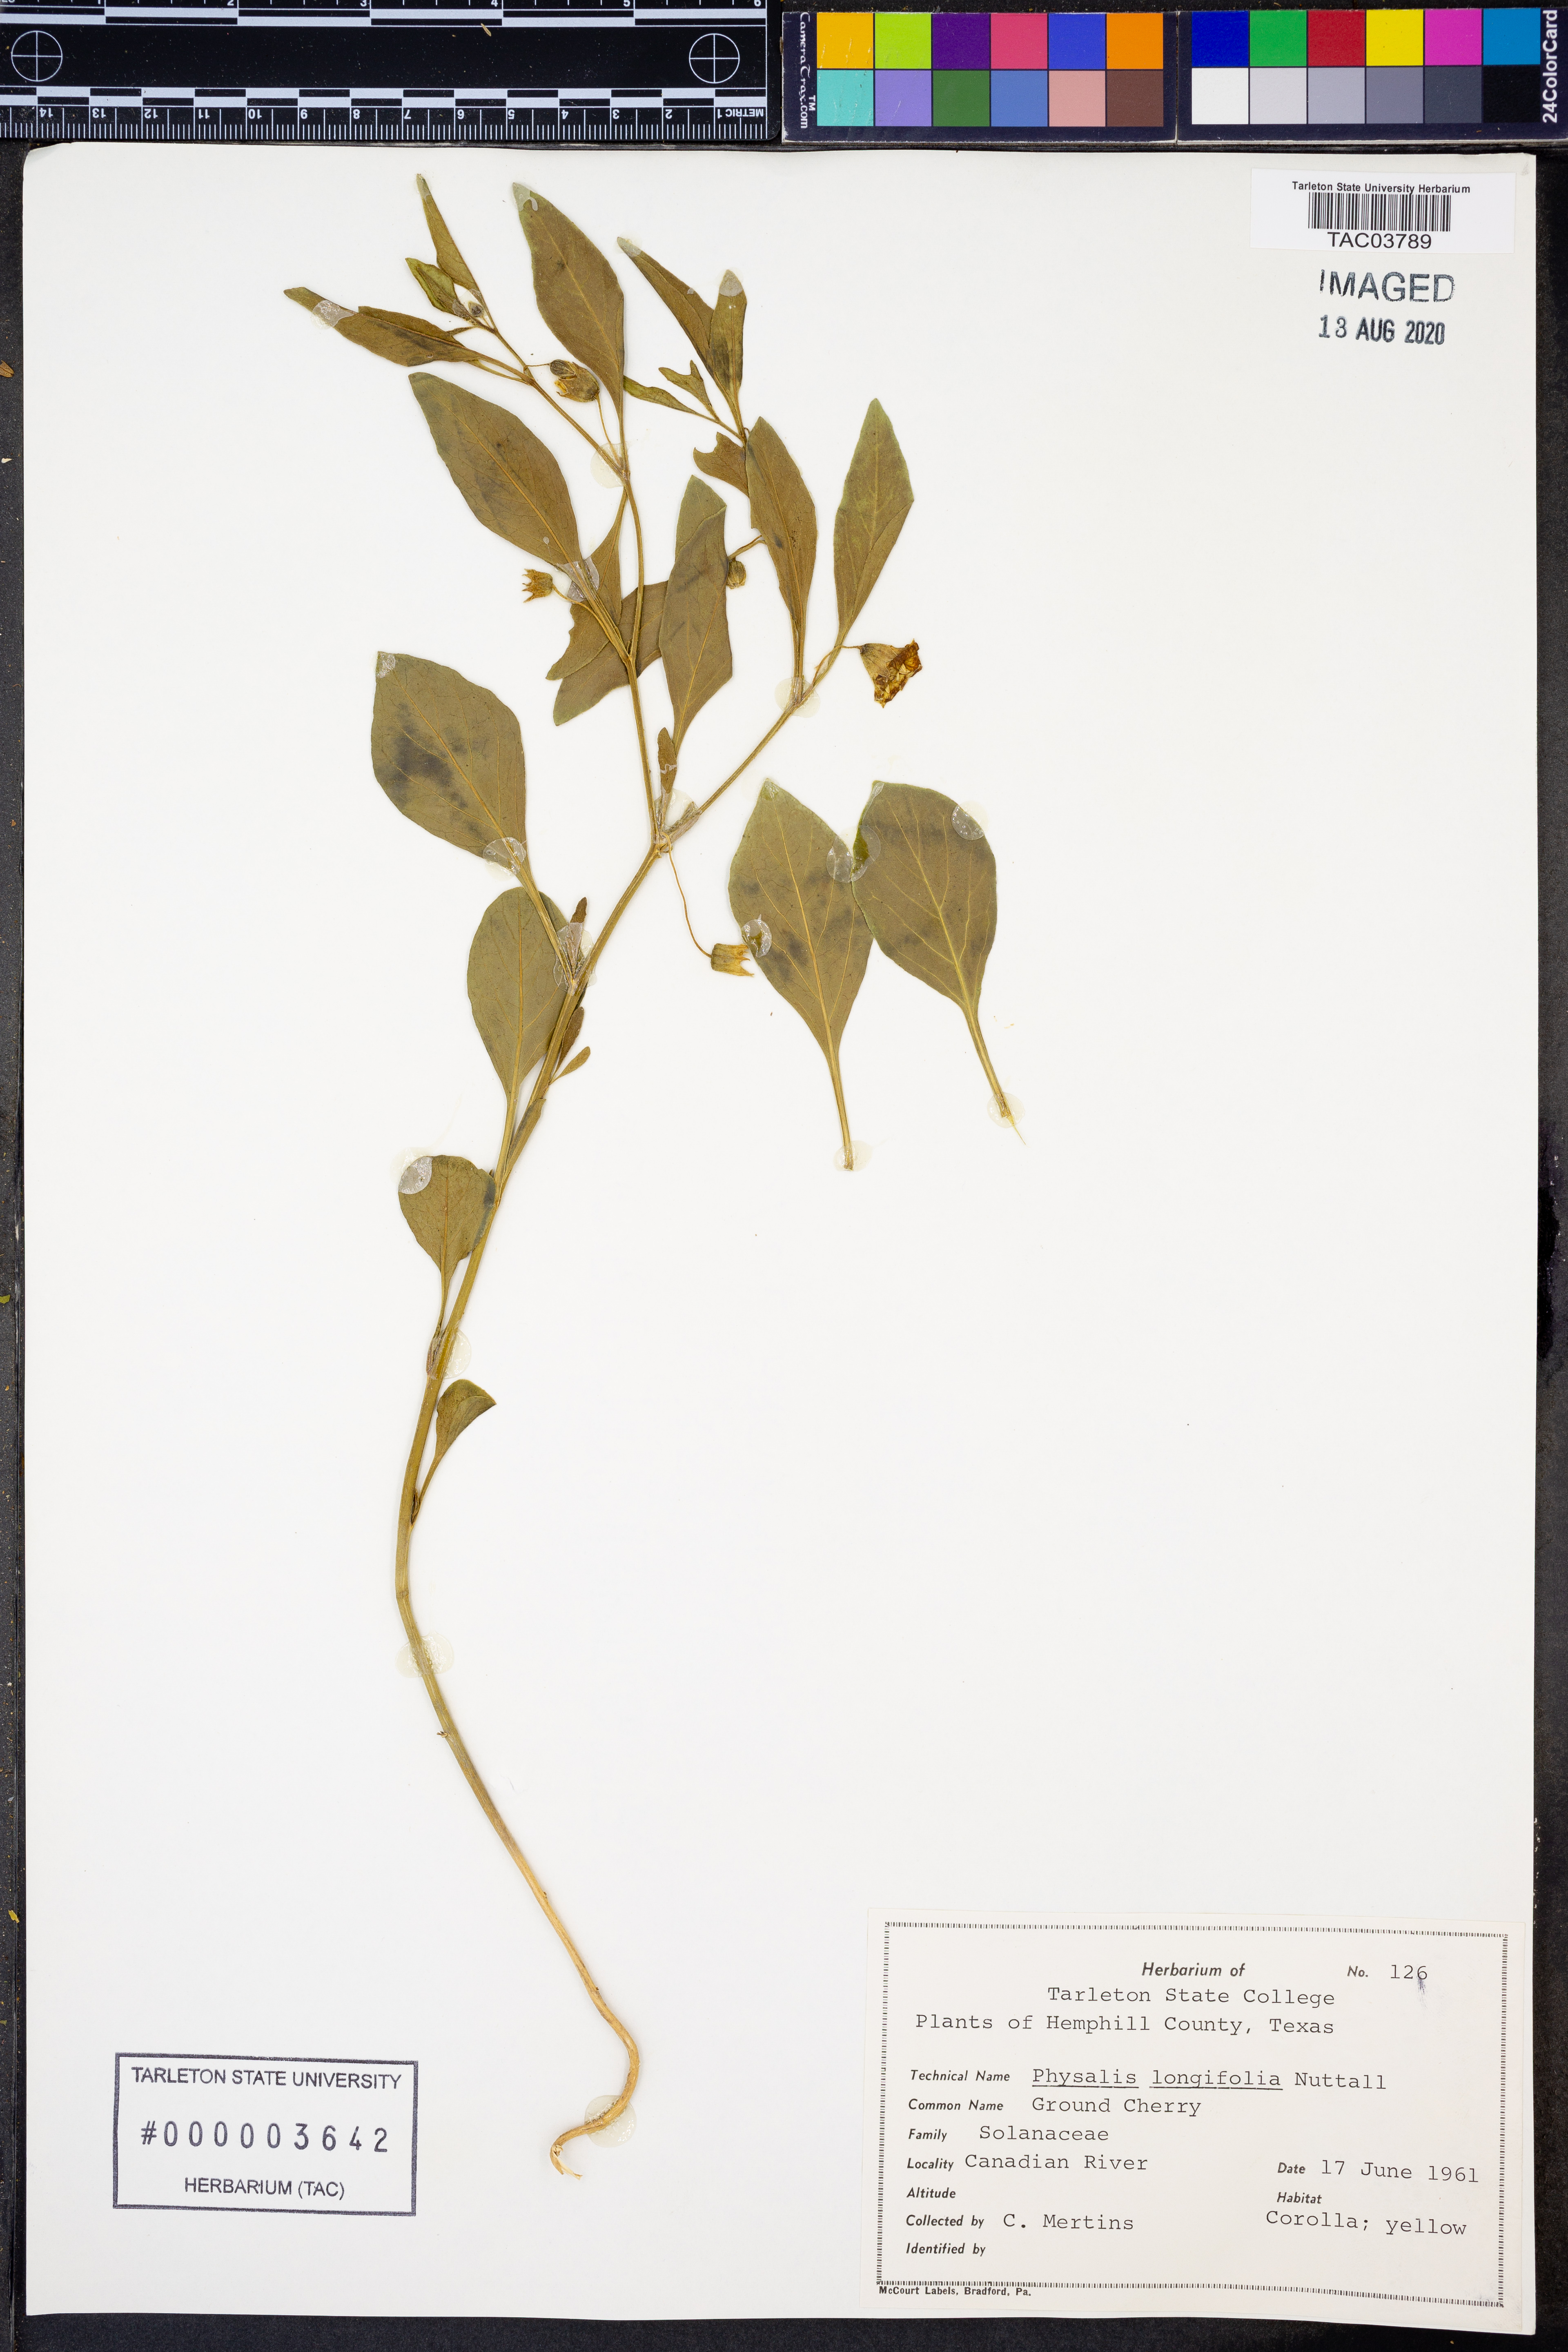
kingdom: Plantae
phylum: Tracheophyta
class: Magnoliopsida
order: Solanales
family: Solanaceae
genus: Physalis
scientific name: Physalis longifolia
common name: Common ground-cherry
